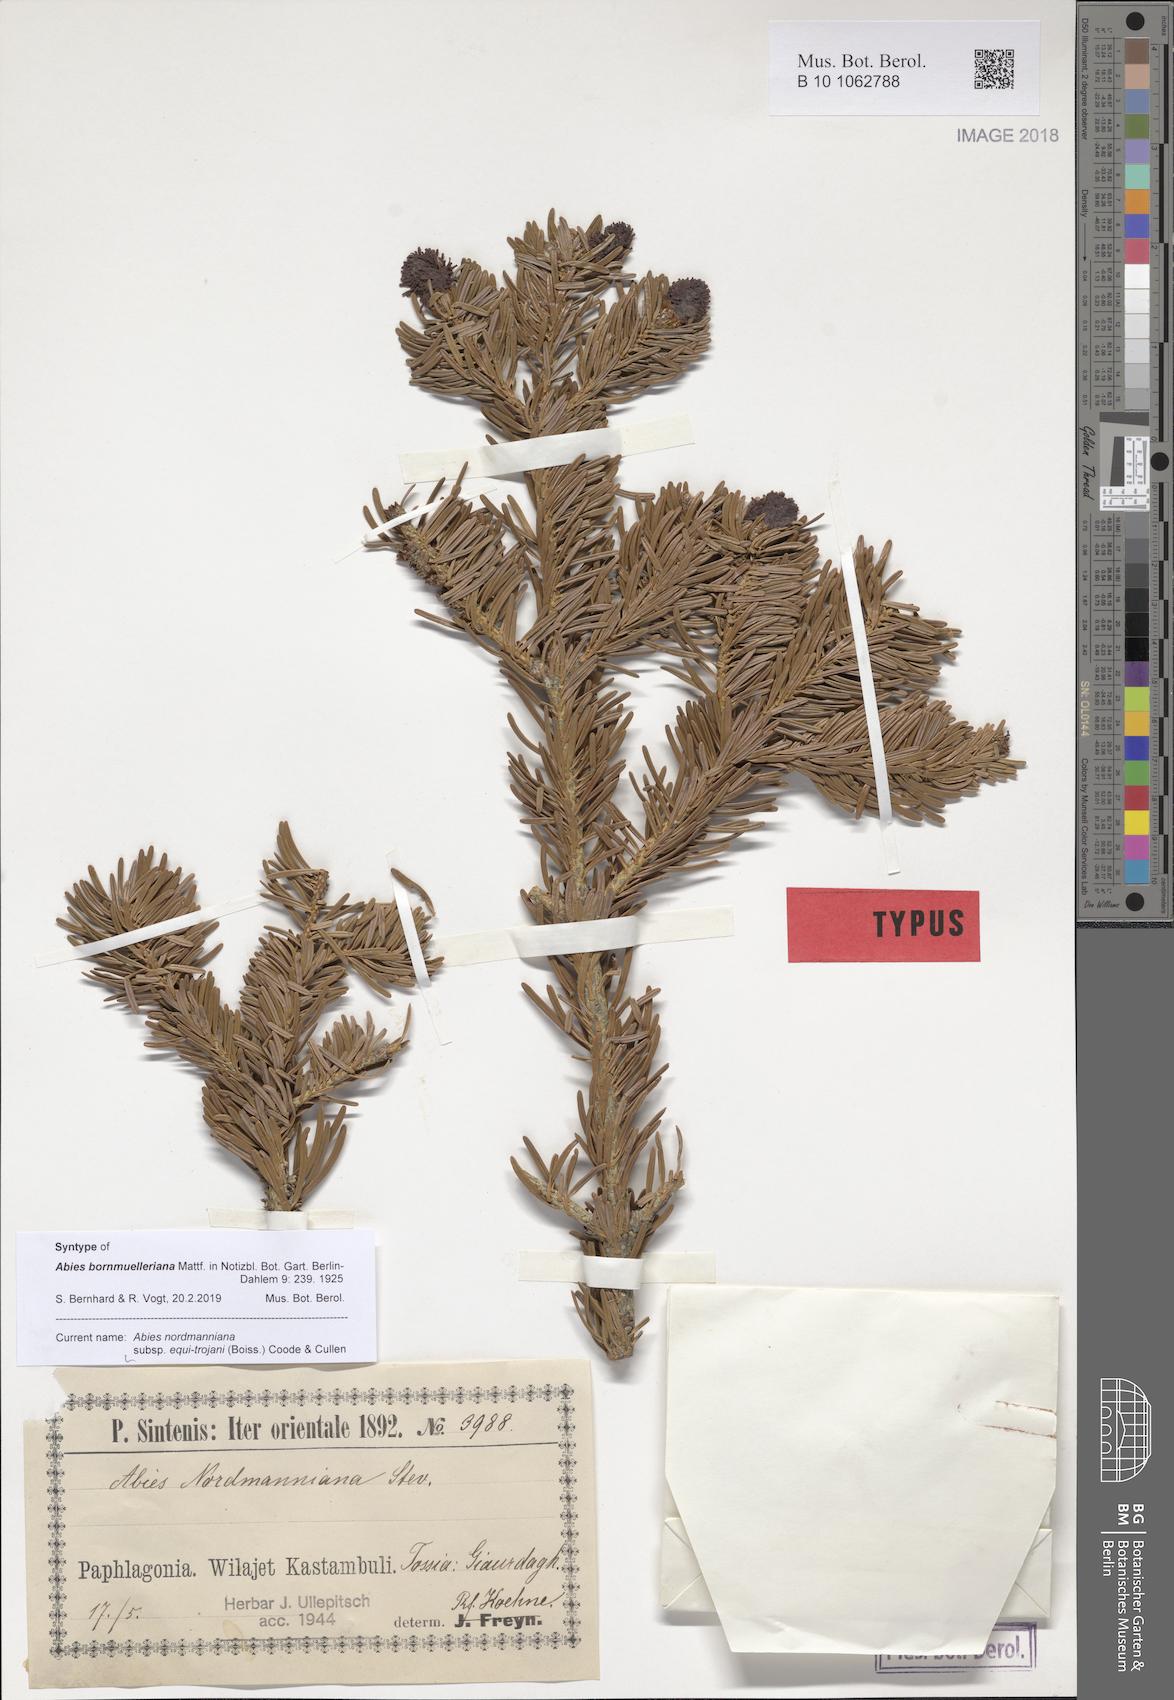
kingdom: Plantae
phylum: Tracheophyta
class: Pinopsida
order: Pinales
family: Pinaceae
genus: Abies
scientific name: Abies nordmanniana
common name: Caucasian fir
